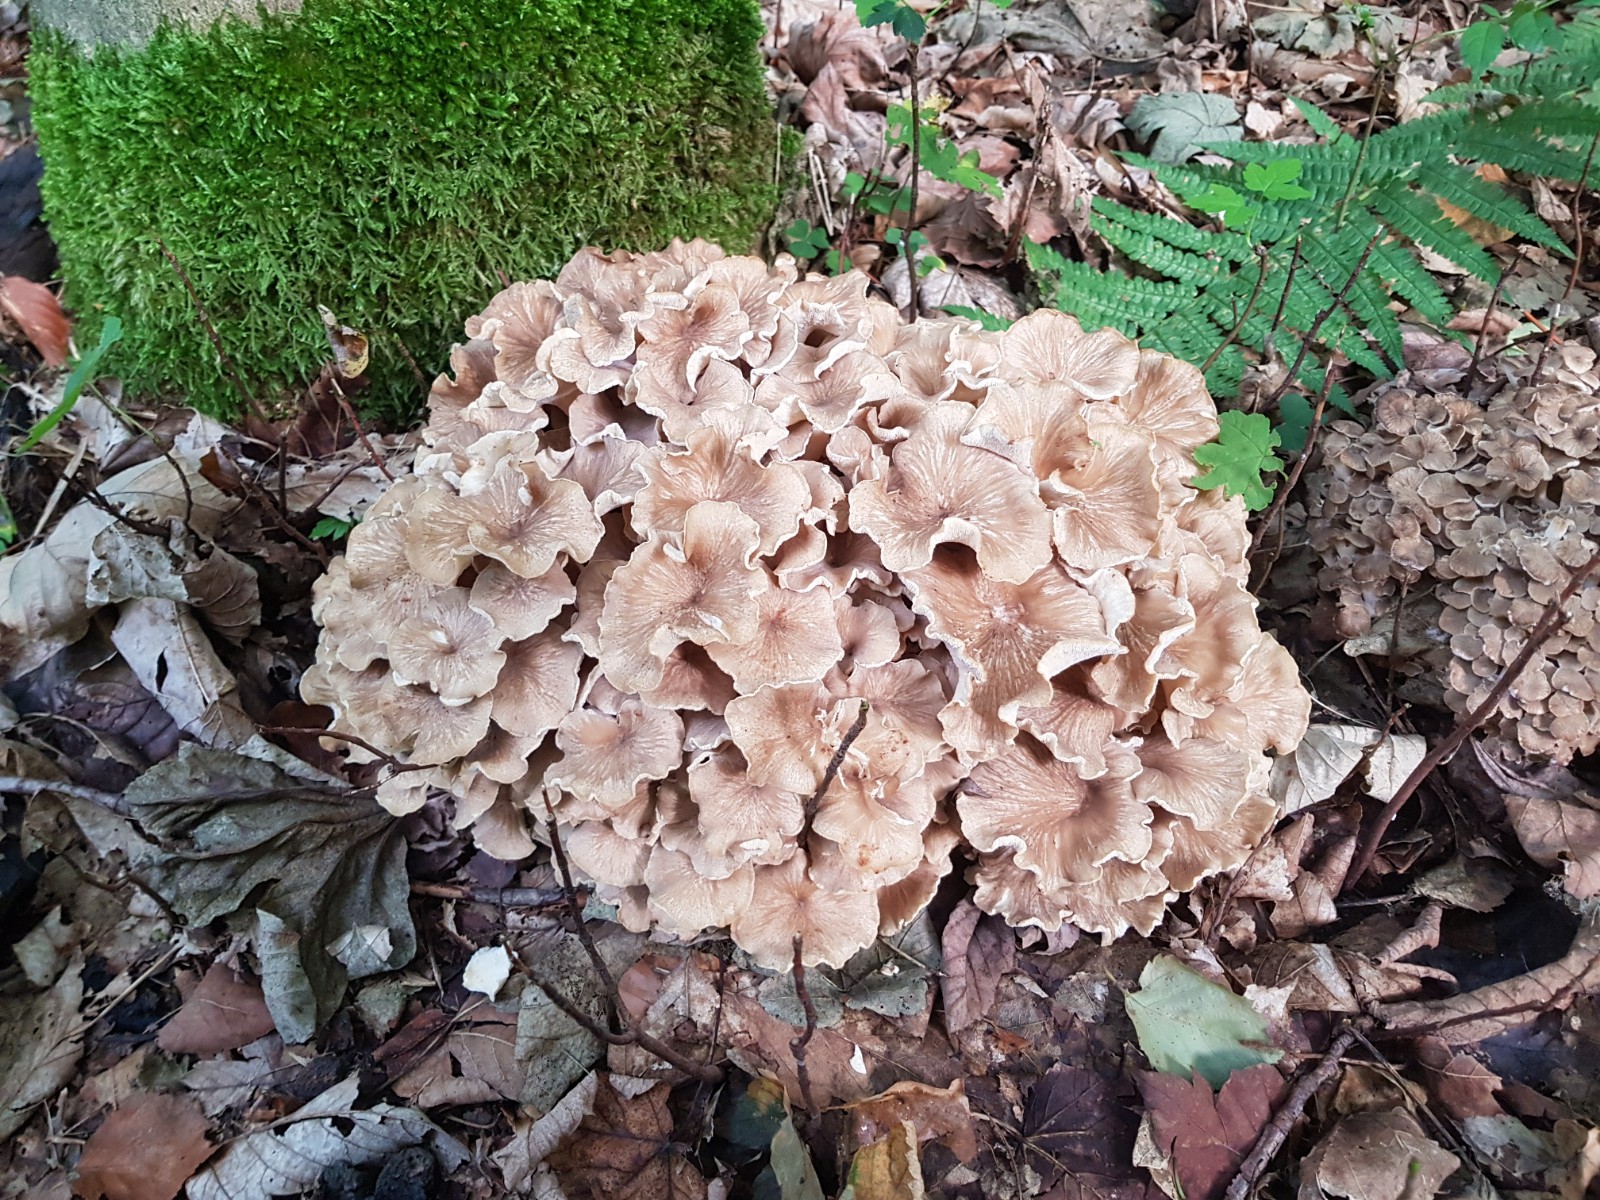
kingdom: Fungi
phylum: Basidiomycota
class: Agaricomycetes
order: Polyporales
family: Polyporaceae
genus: Polyporus
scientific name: Polyporus umbellatus
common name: skærmformet stilkporesvamp
